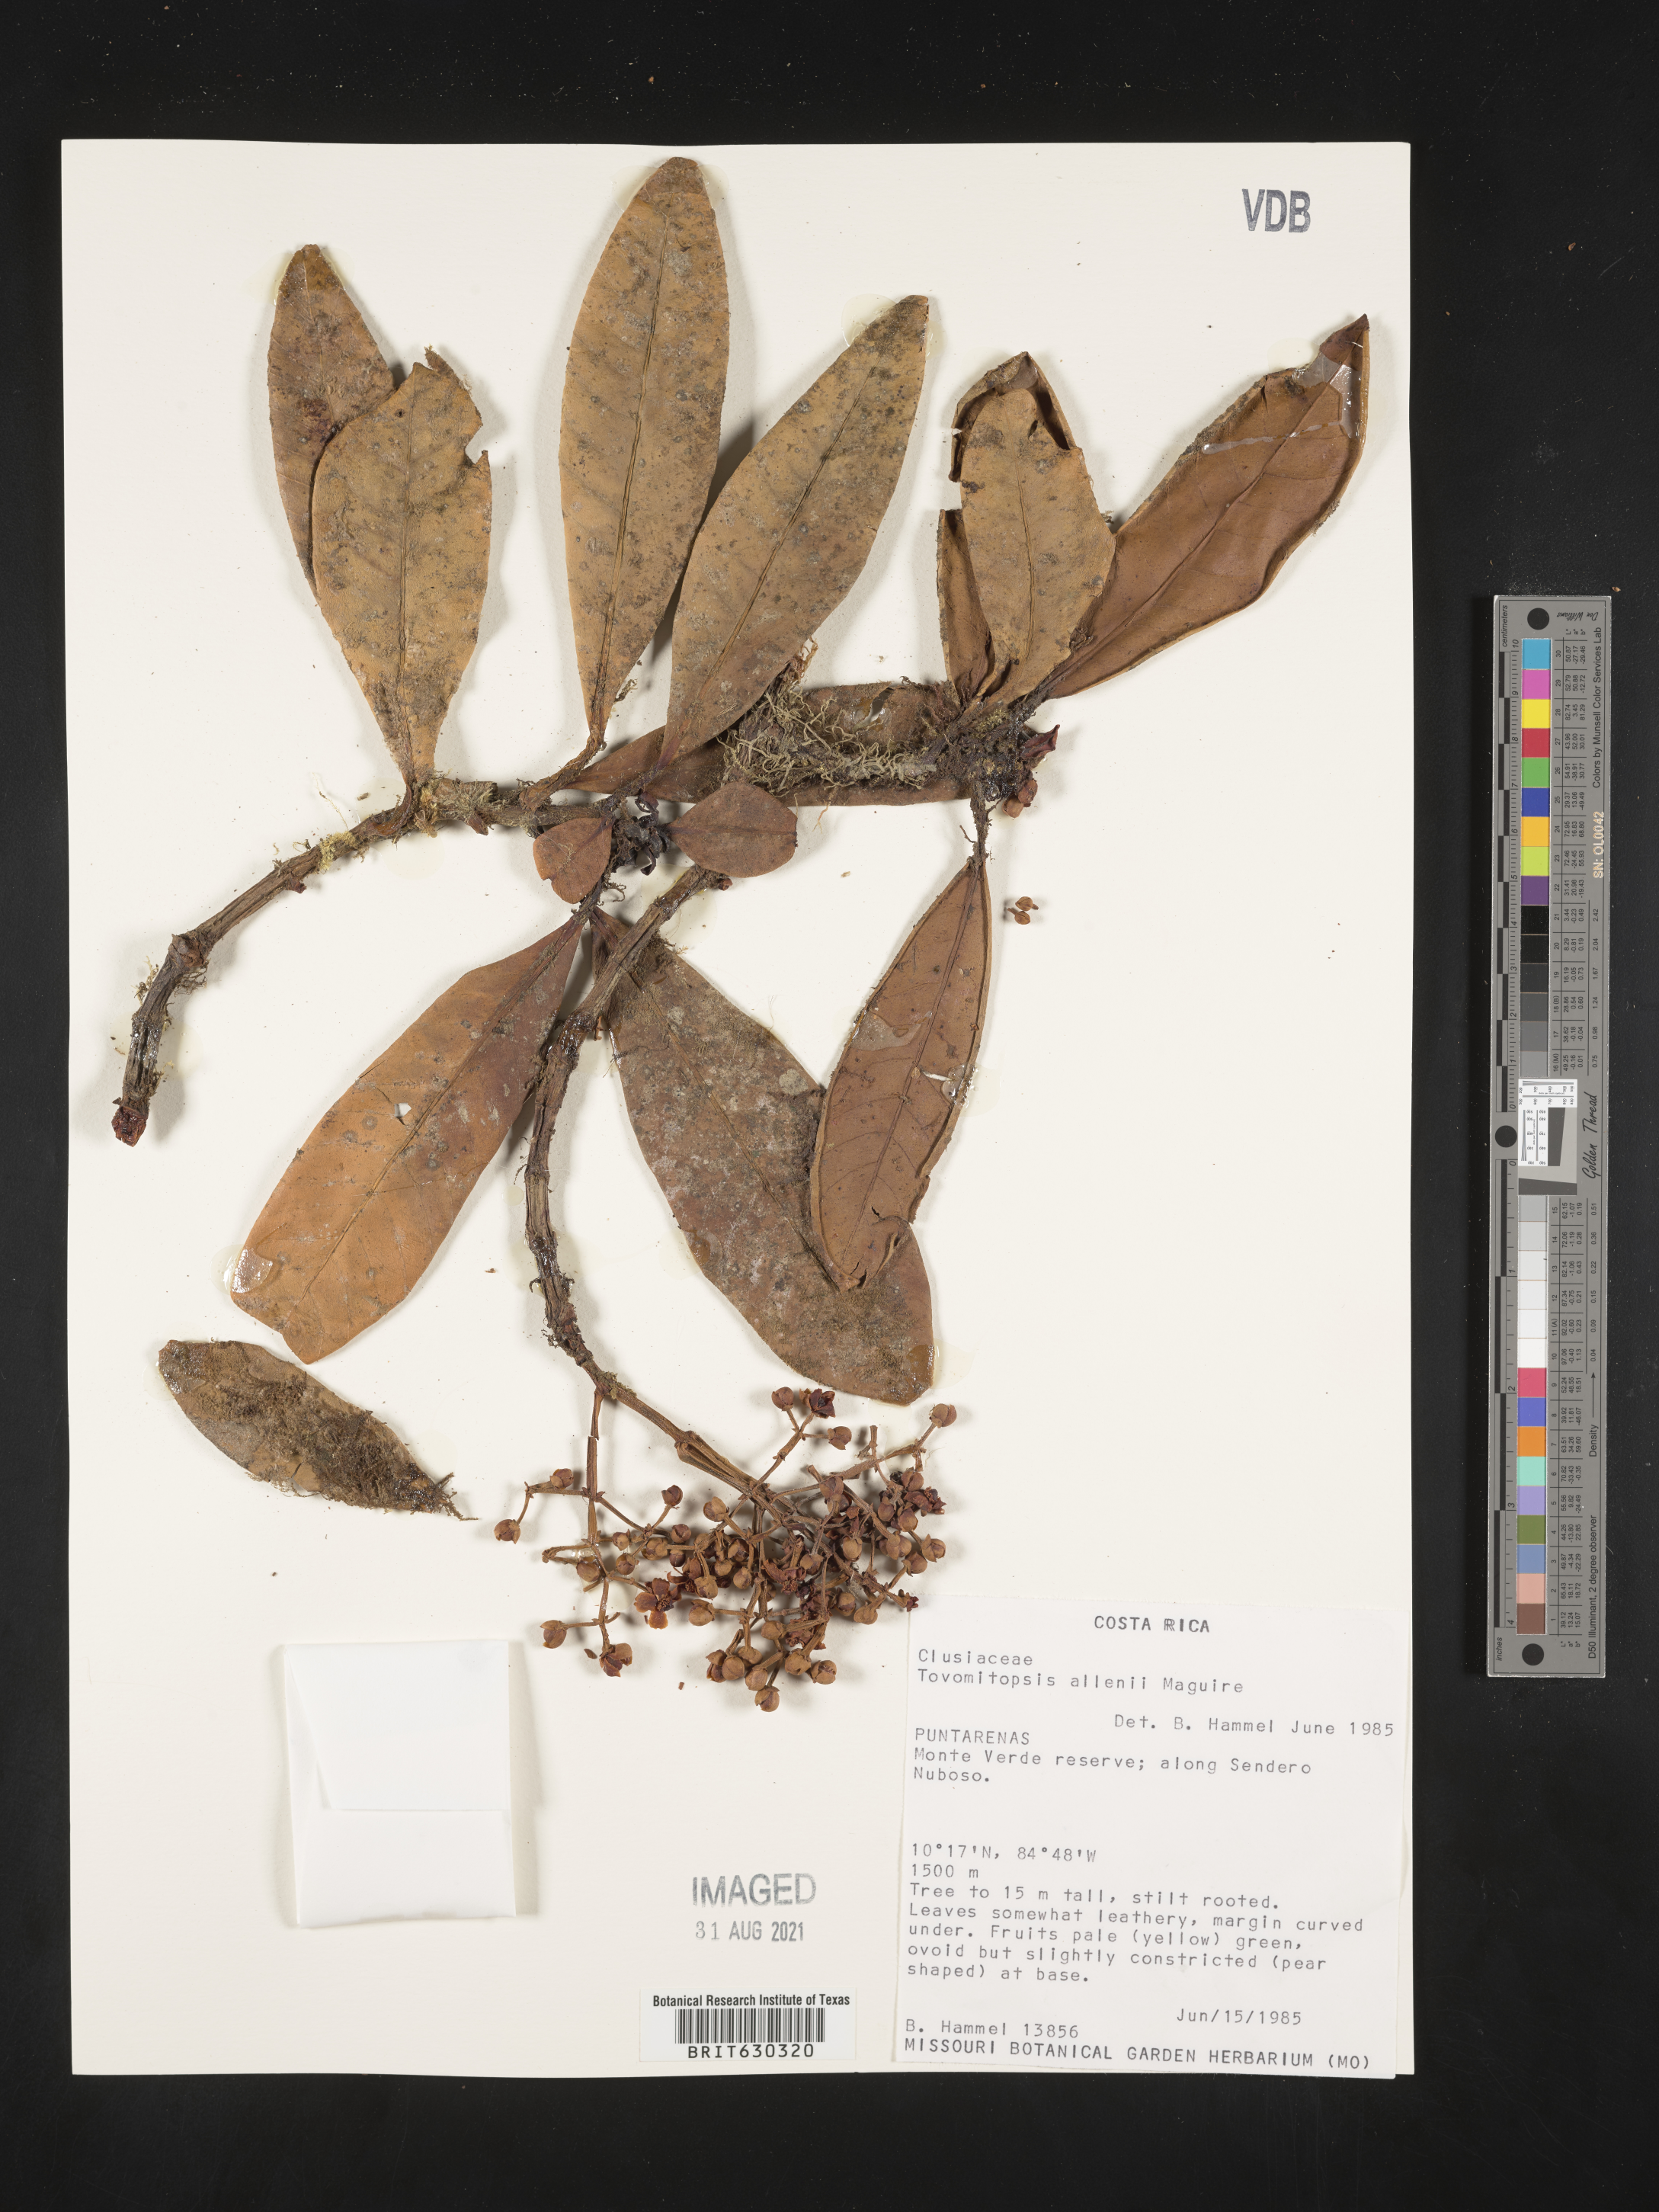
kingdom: Plantae
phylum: Tracheophyta
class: Magnoliopsida
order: Malpighiales
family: Clusiaceae
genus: Chrysochlamys
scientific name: Chrysochlamys allenii
